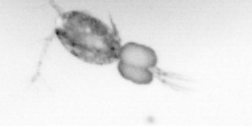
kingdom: Animalia
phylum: Arthropoda
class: Copepoda
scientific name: Copepoda
